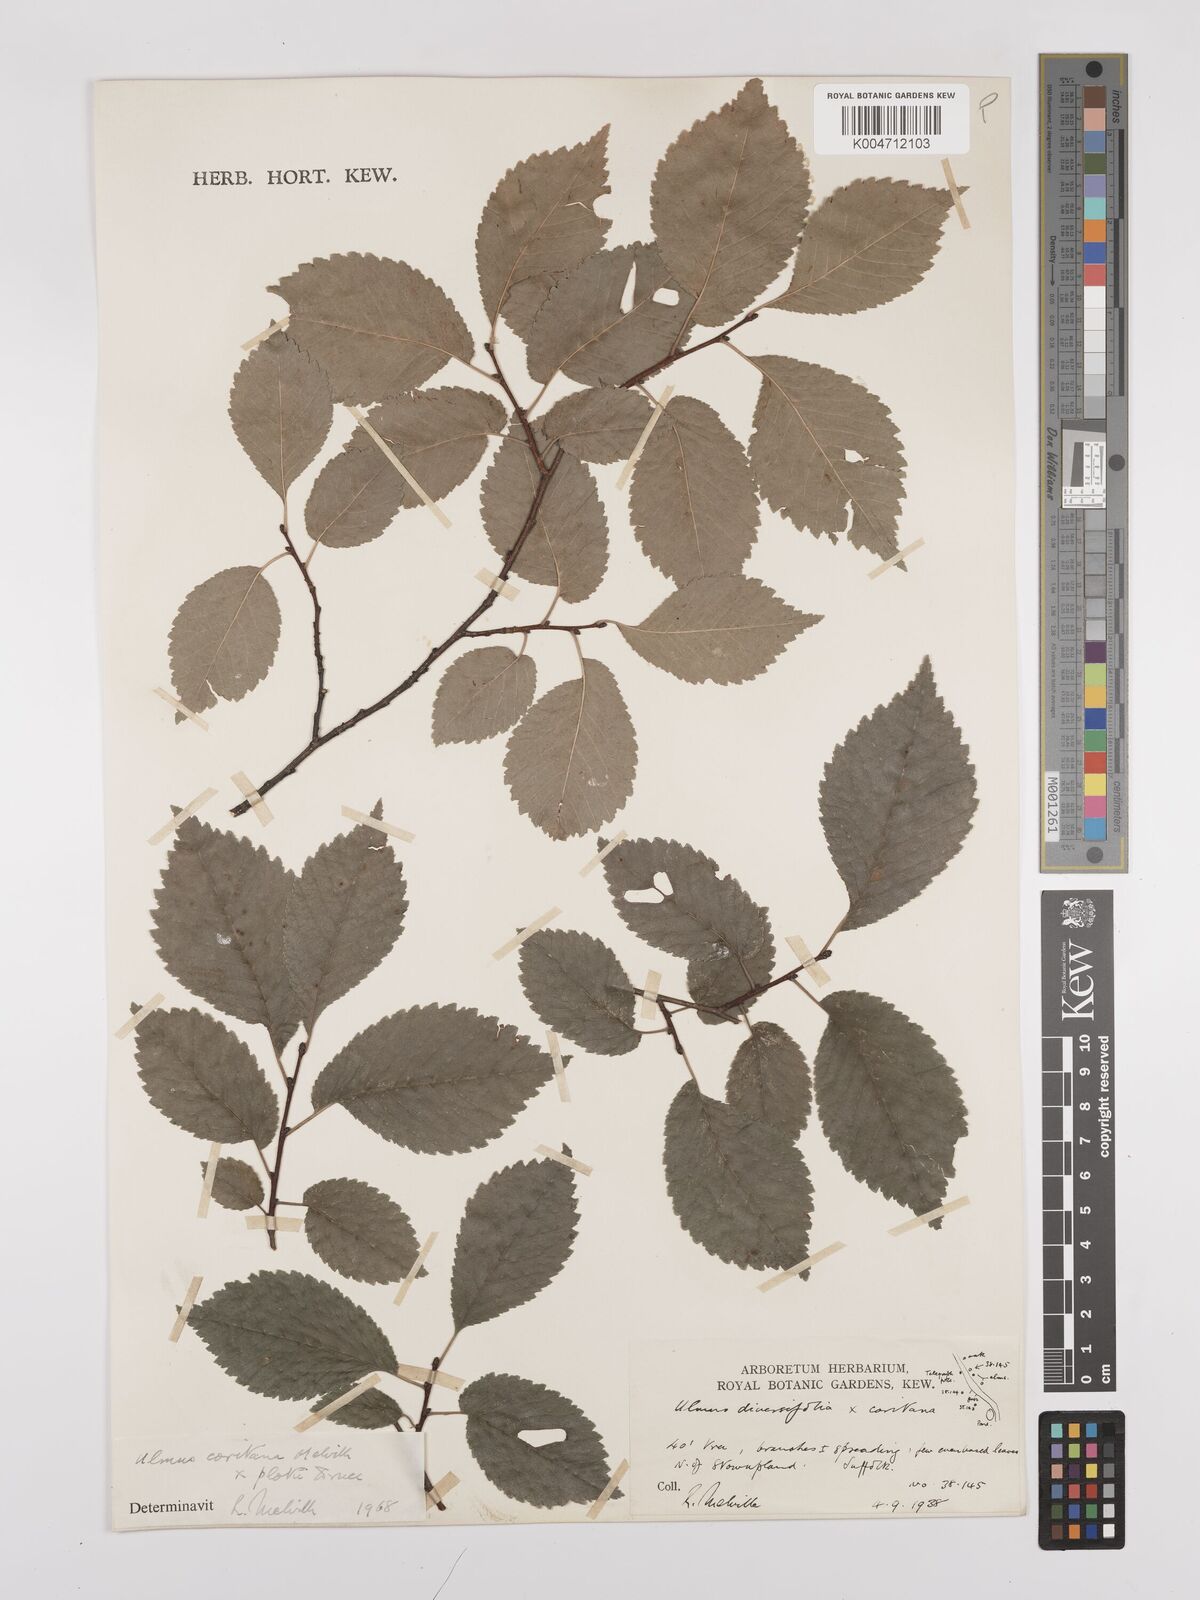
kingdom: Plantae
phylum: Tracheophyta
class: Magnoliopsida
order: Rosales
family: Ulmaceae
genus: Ulmus
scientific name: Ulmus minor
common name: Small-leaved elm
